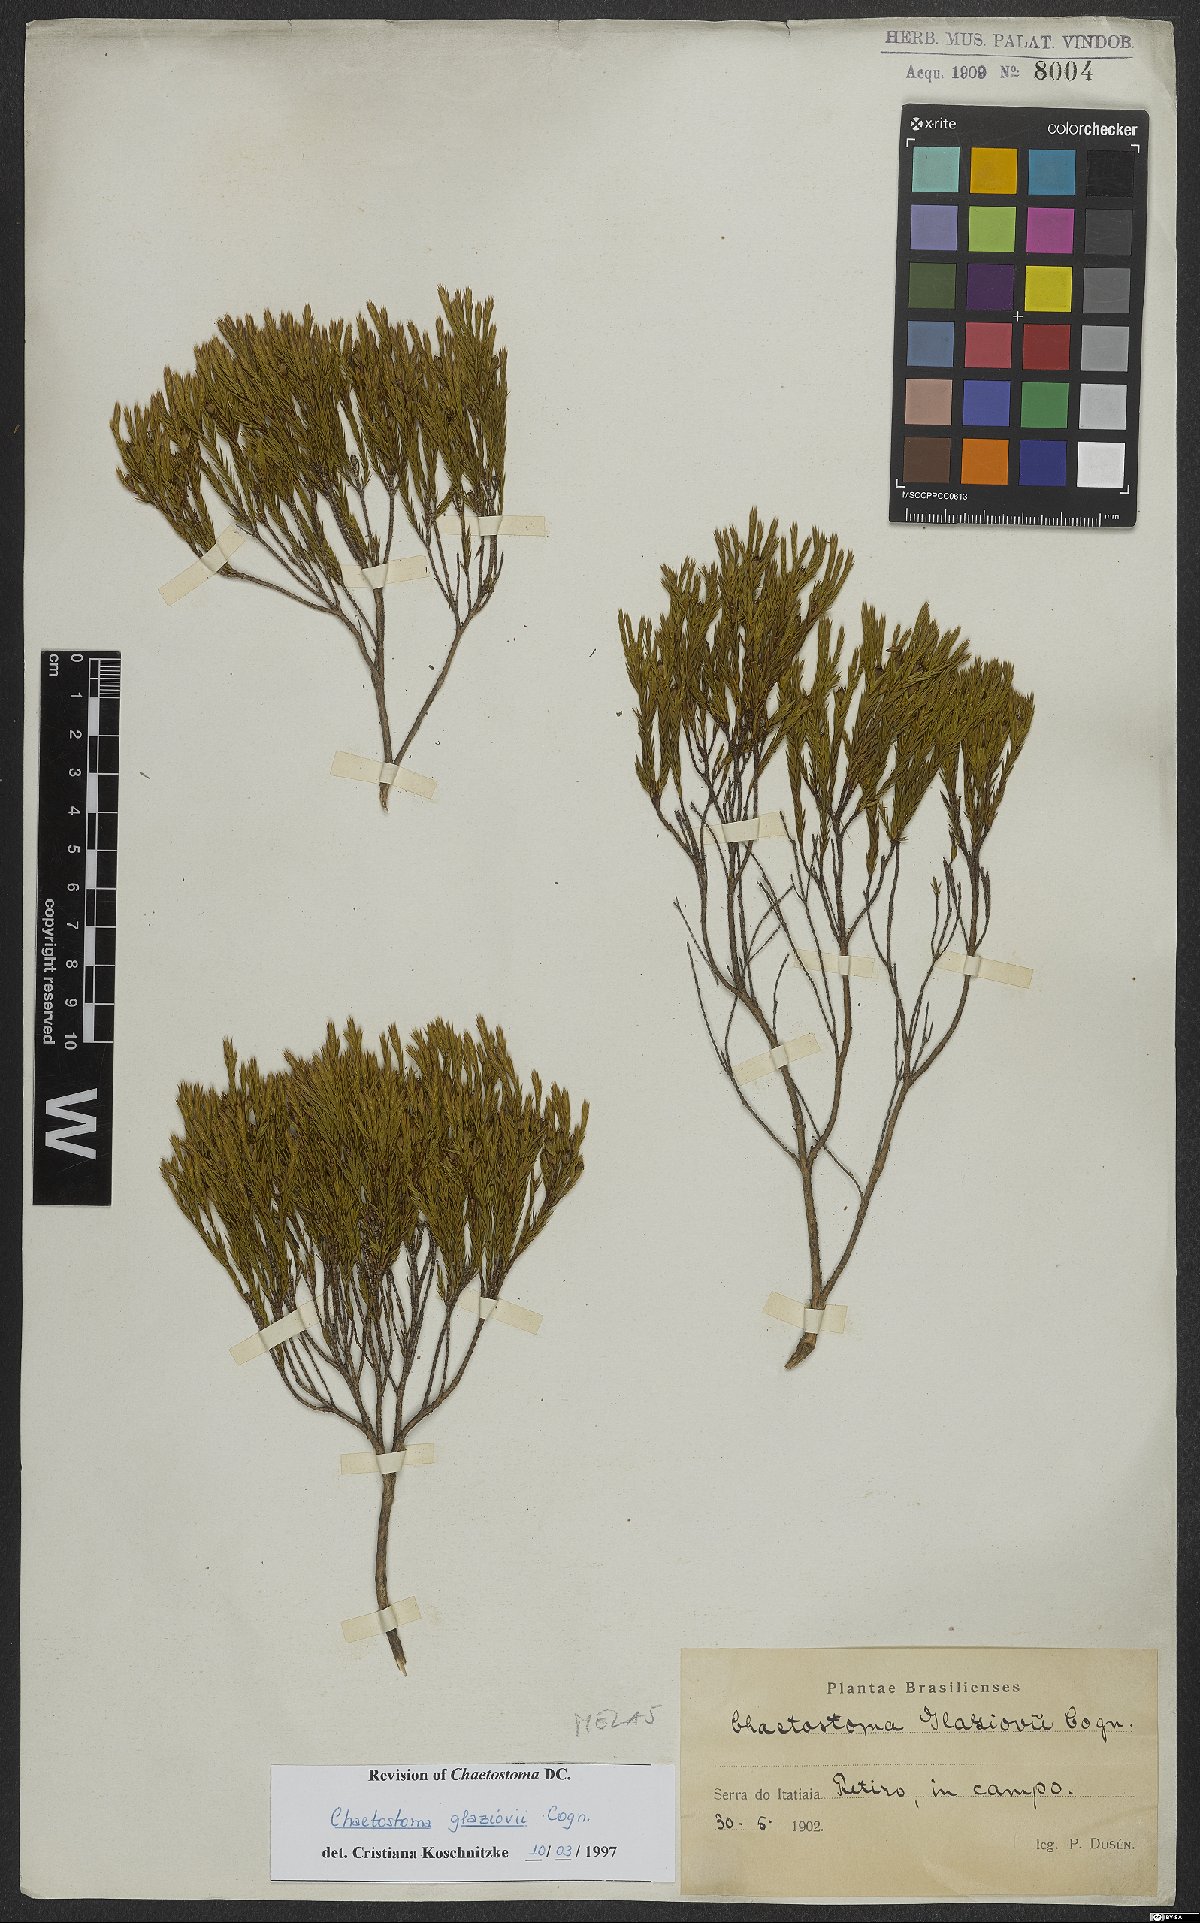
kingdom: Plantae
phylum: Tracheophyta
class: Magnoliopsida
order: Myrtales
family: Melastomataceae
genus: Microlicia
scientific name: Microlicia glaziovii
